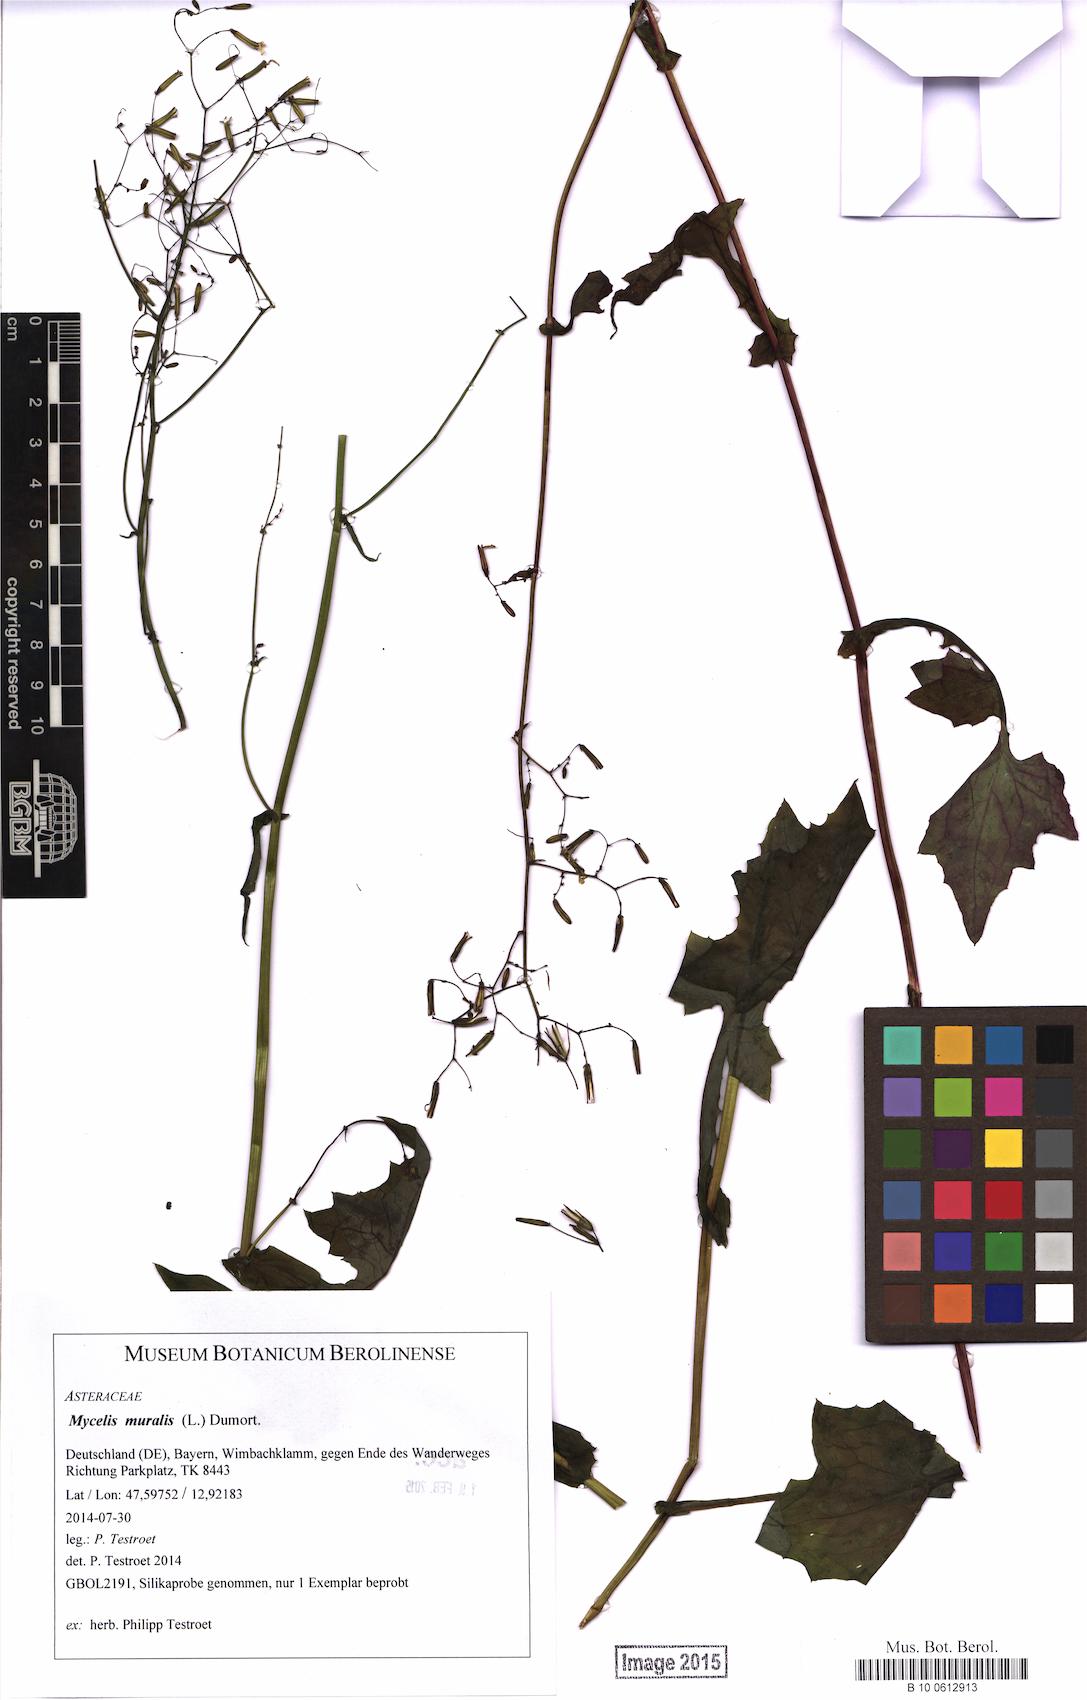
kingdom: Plantae
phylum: Tracheophyta
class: Magnoliopsida
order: Asterales
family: Asteraceae
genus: Mycelis
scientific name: Mycelis muralis
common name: Wall lettuce
